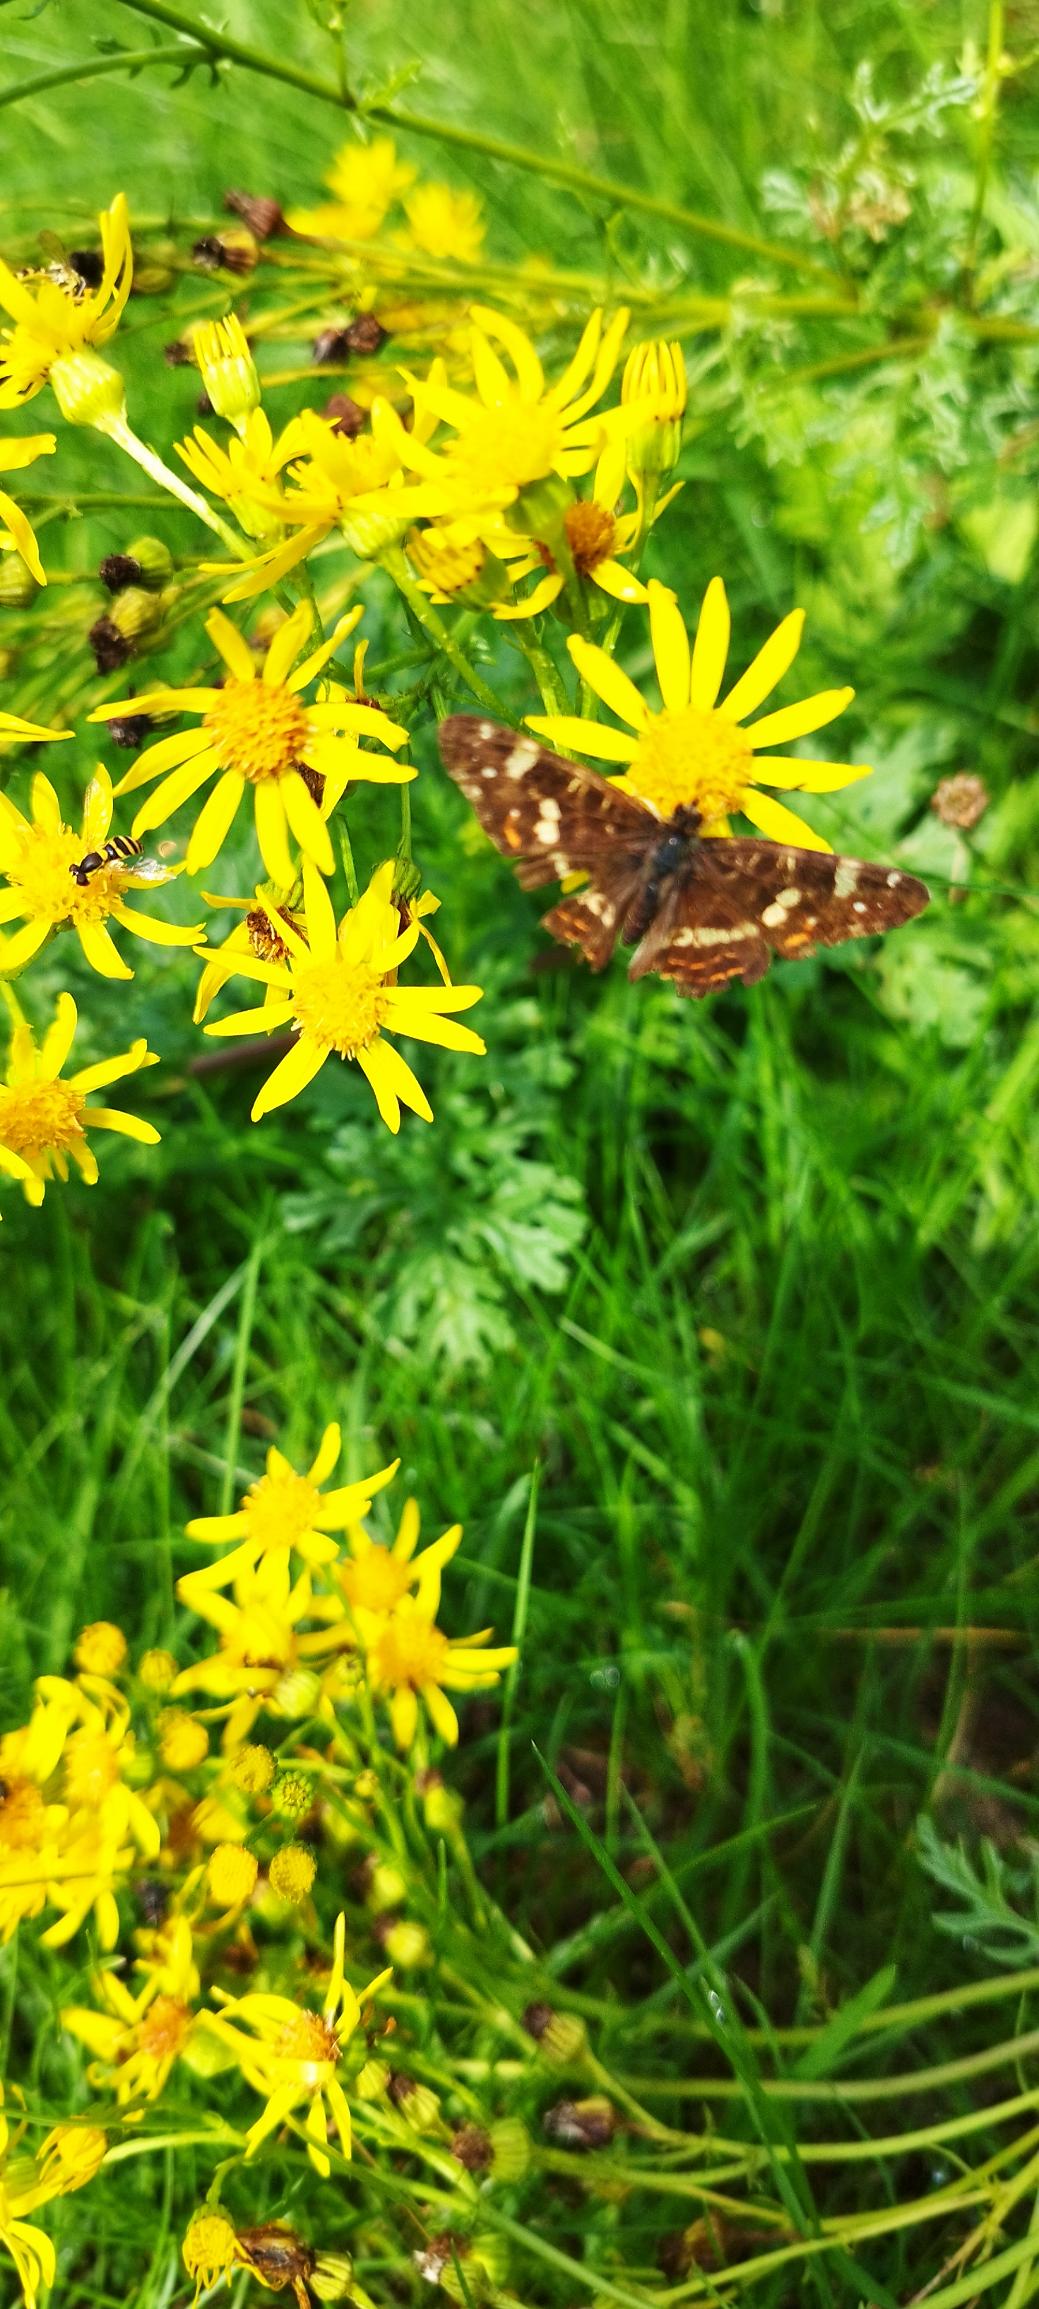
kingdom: Animalia
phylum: Arthropoda
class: Insecta
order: Lepidoptera
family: Nymphalidae
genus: Araschnia
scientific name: Araschnia levana
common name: Nældesommerfugl
